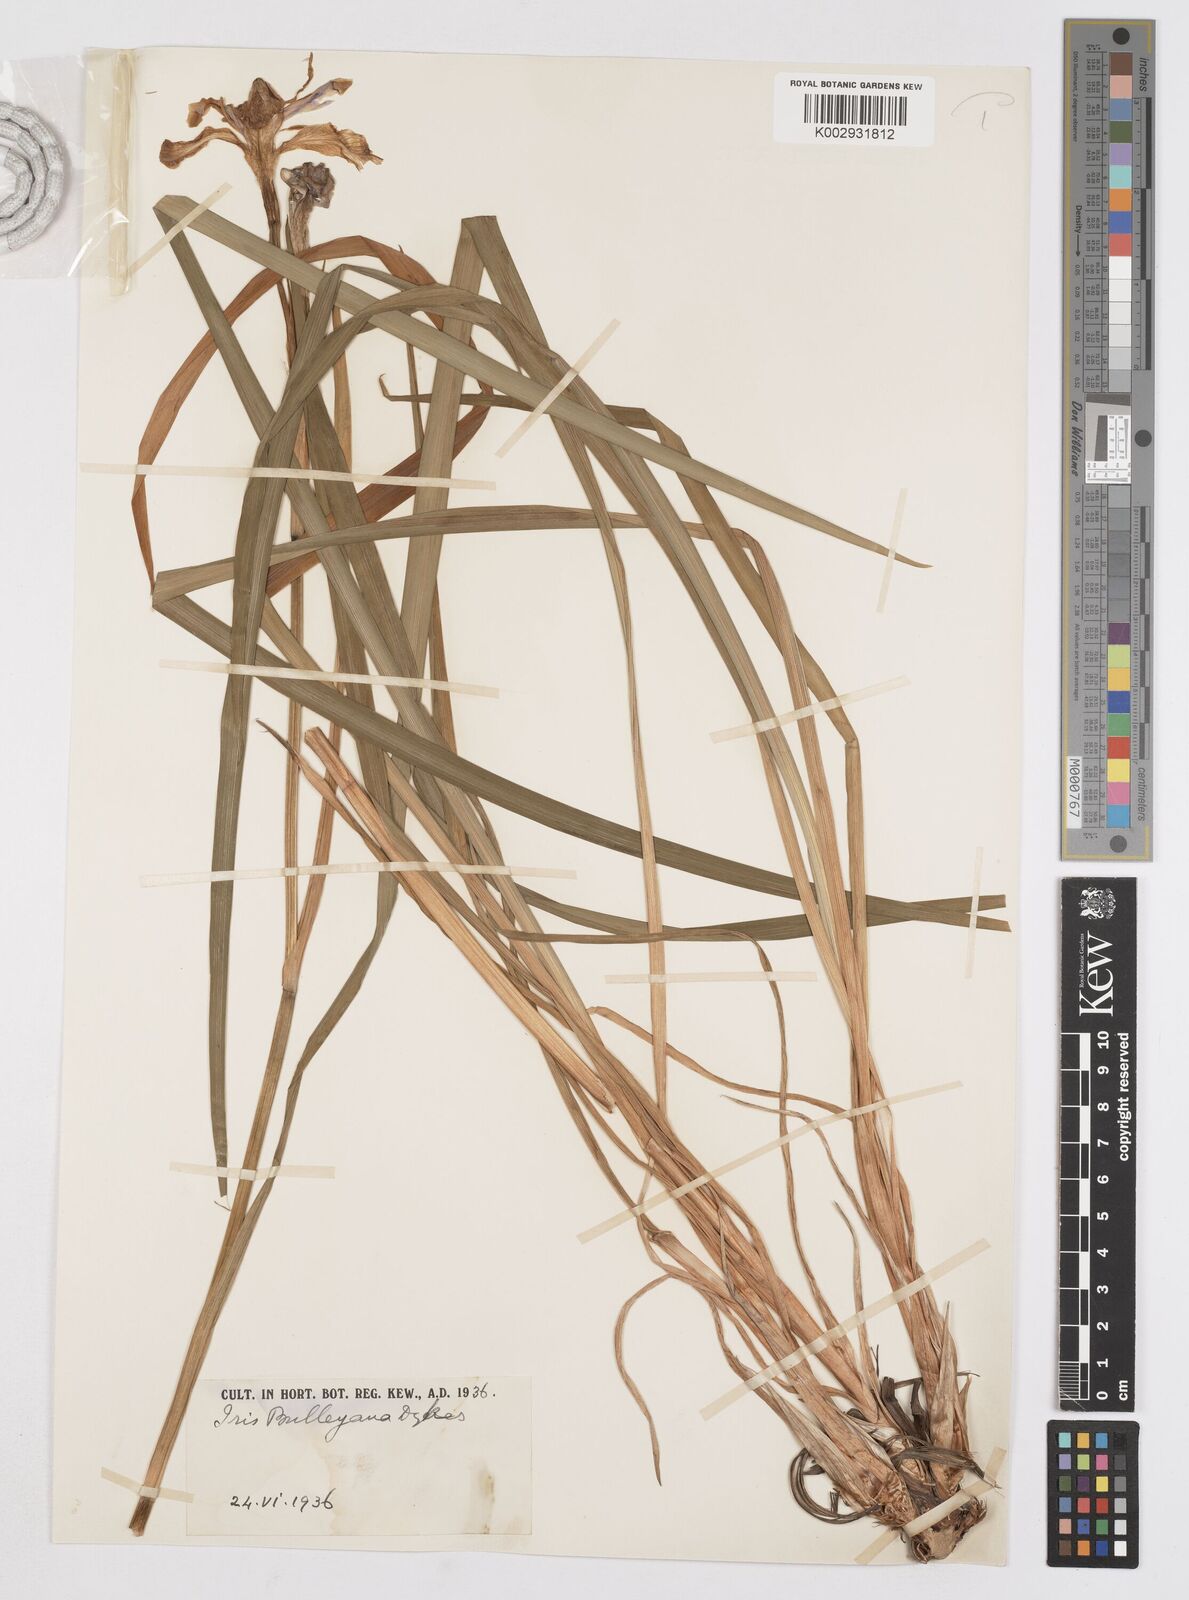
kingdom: Plantae
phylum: Tracheophyta
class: Liliopsida
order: Asparagales
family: Iridaceae
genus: Iris
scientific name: Iris clarkei
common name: Tibet iris
